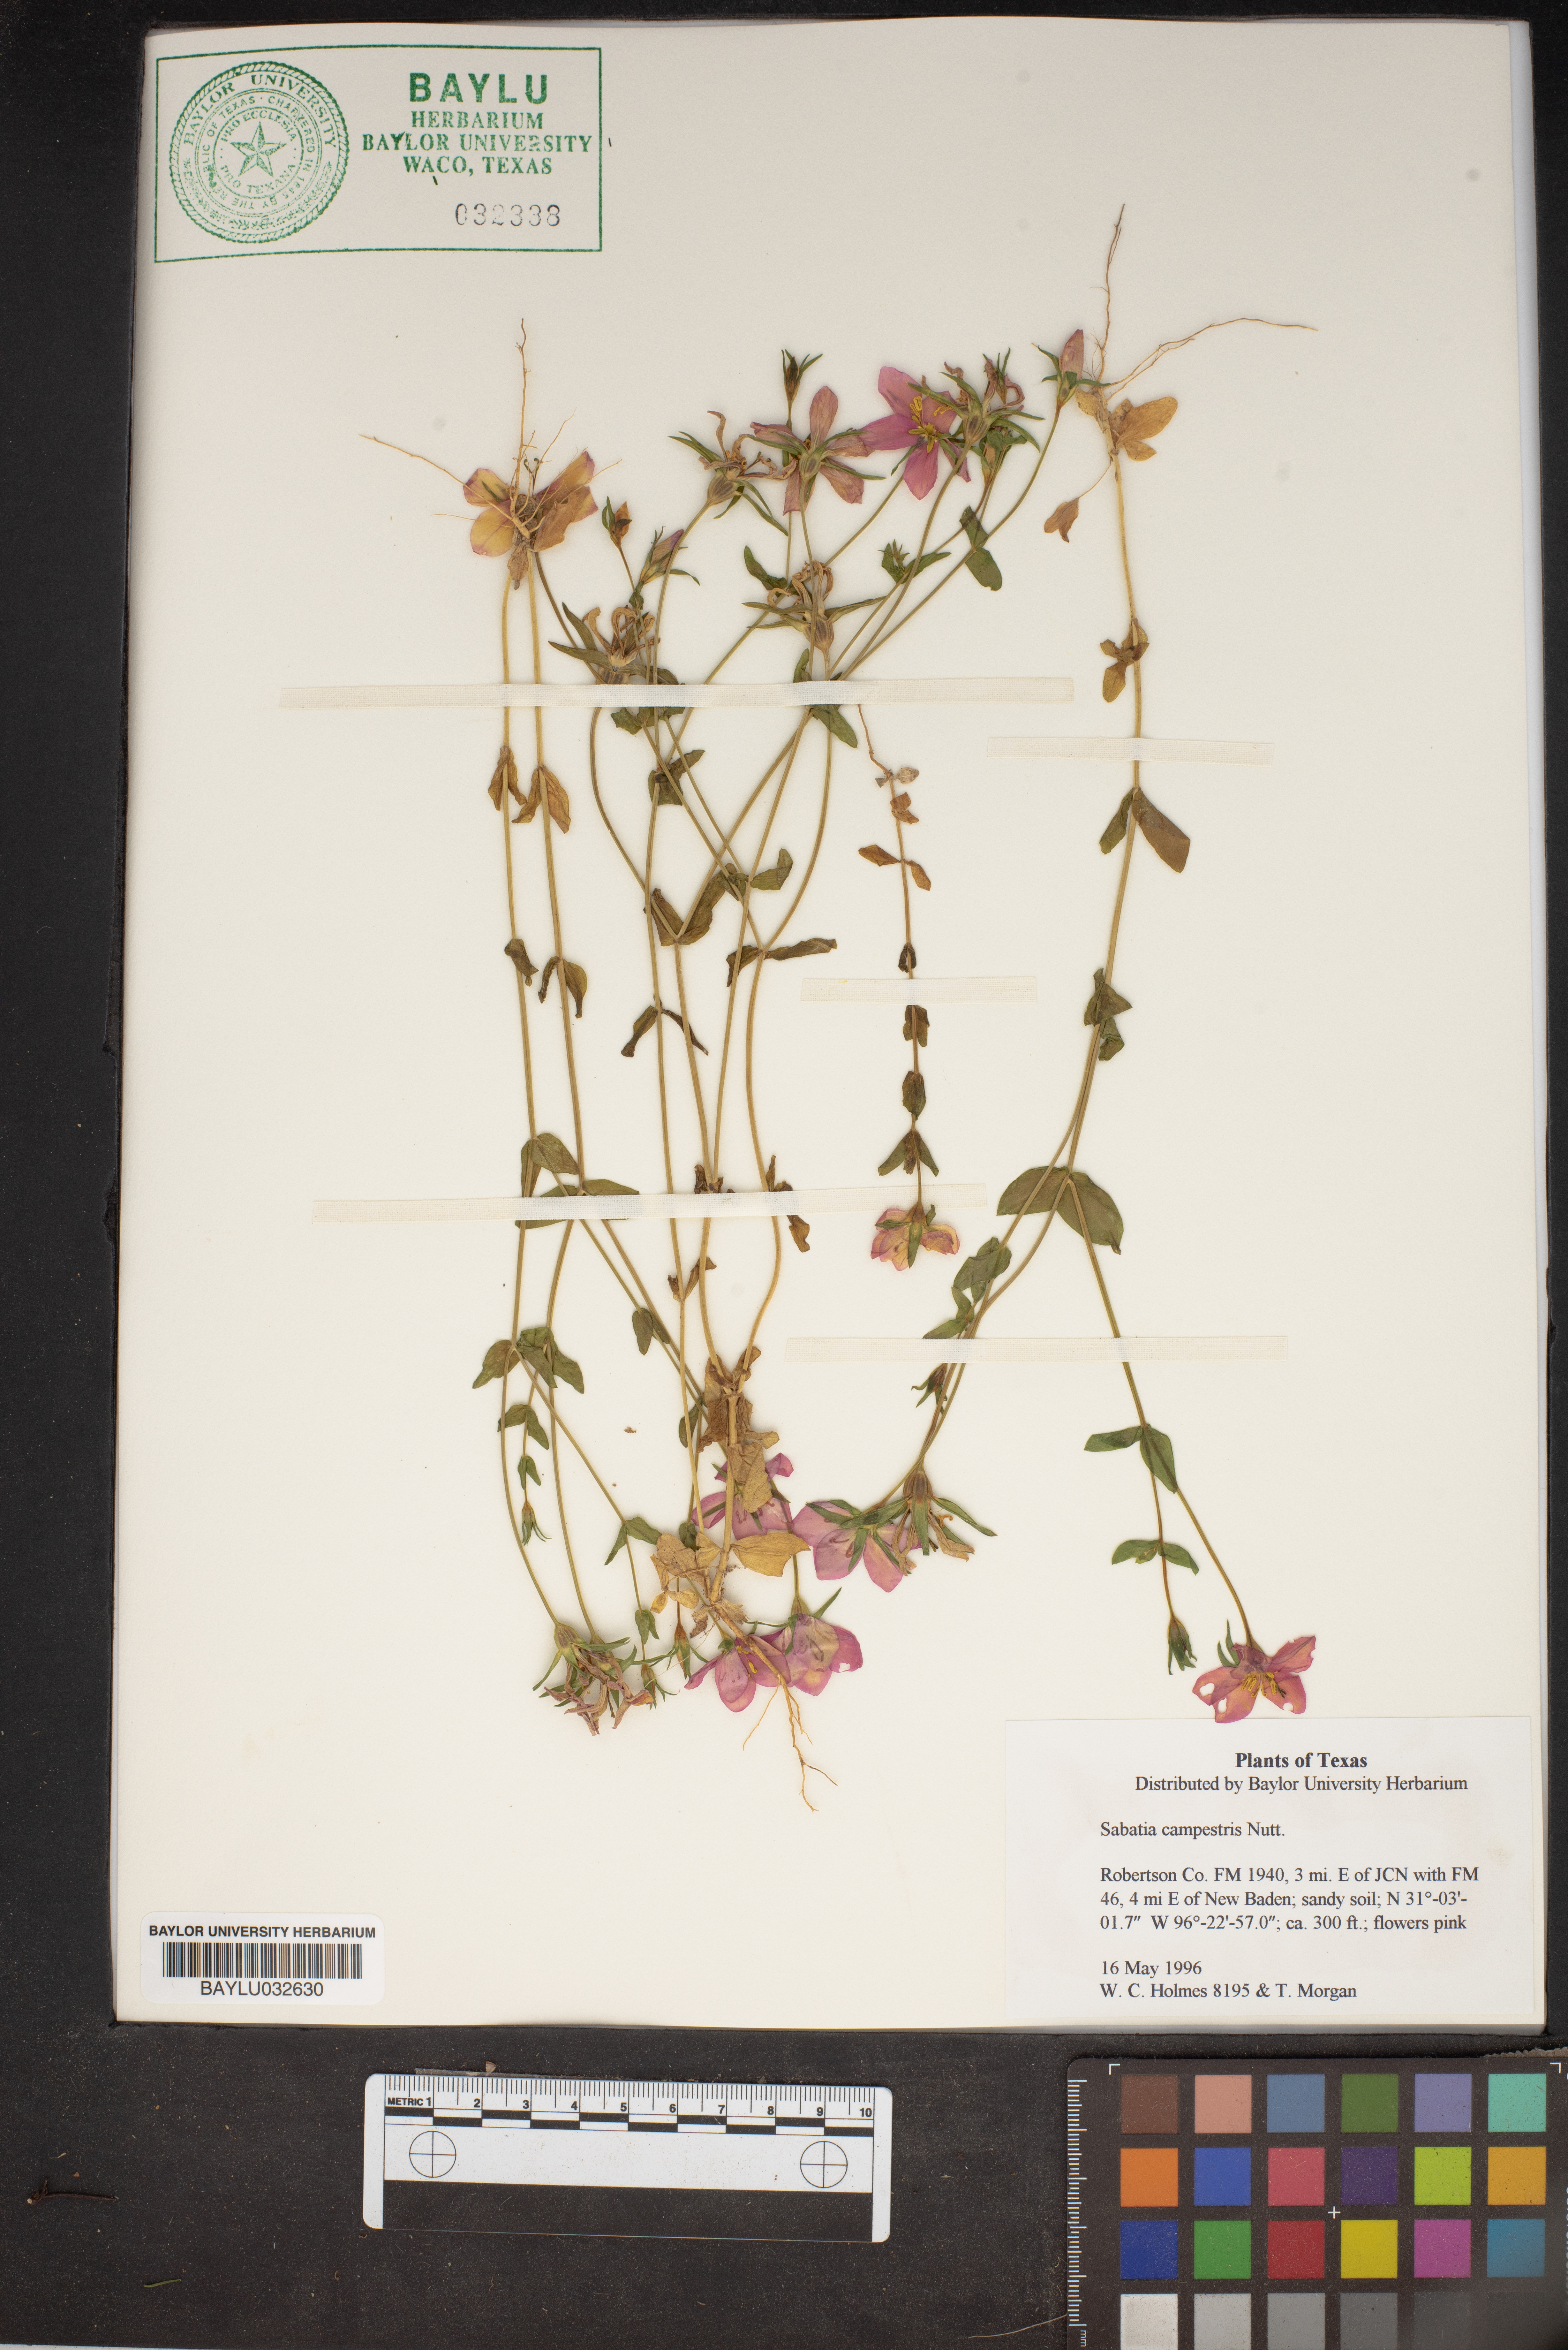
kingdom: Plantae
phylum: Tracheophyta
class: Magnoliopsida
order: Gentianales
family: Gentianaceae
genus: Sabatia
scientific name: Sabatia campestris
